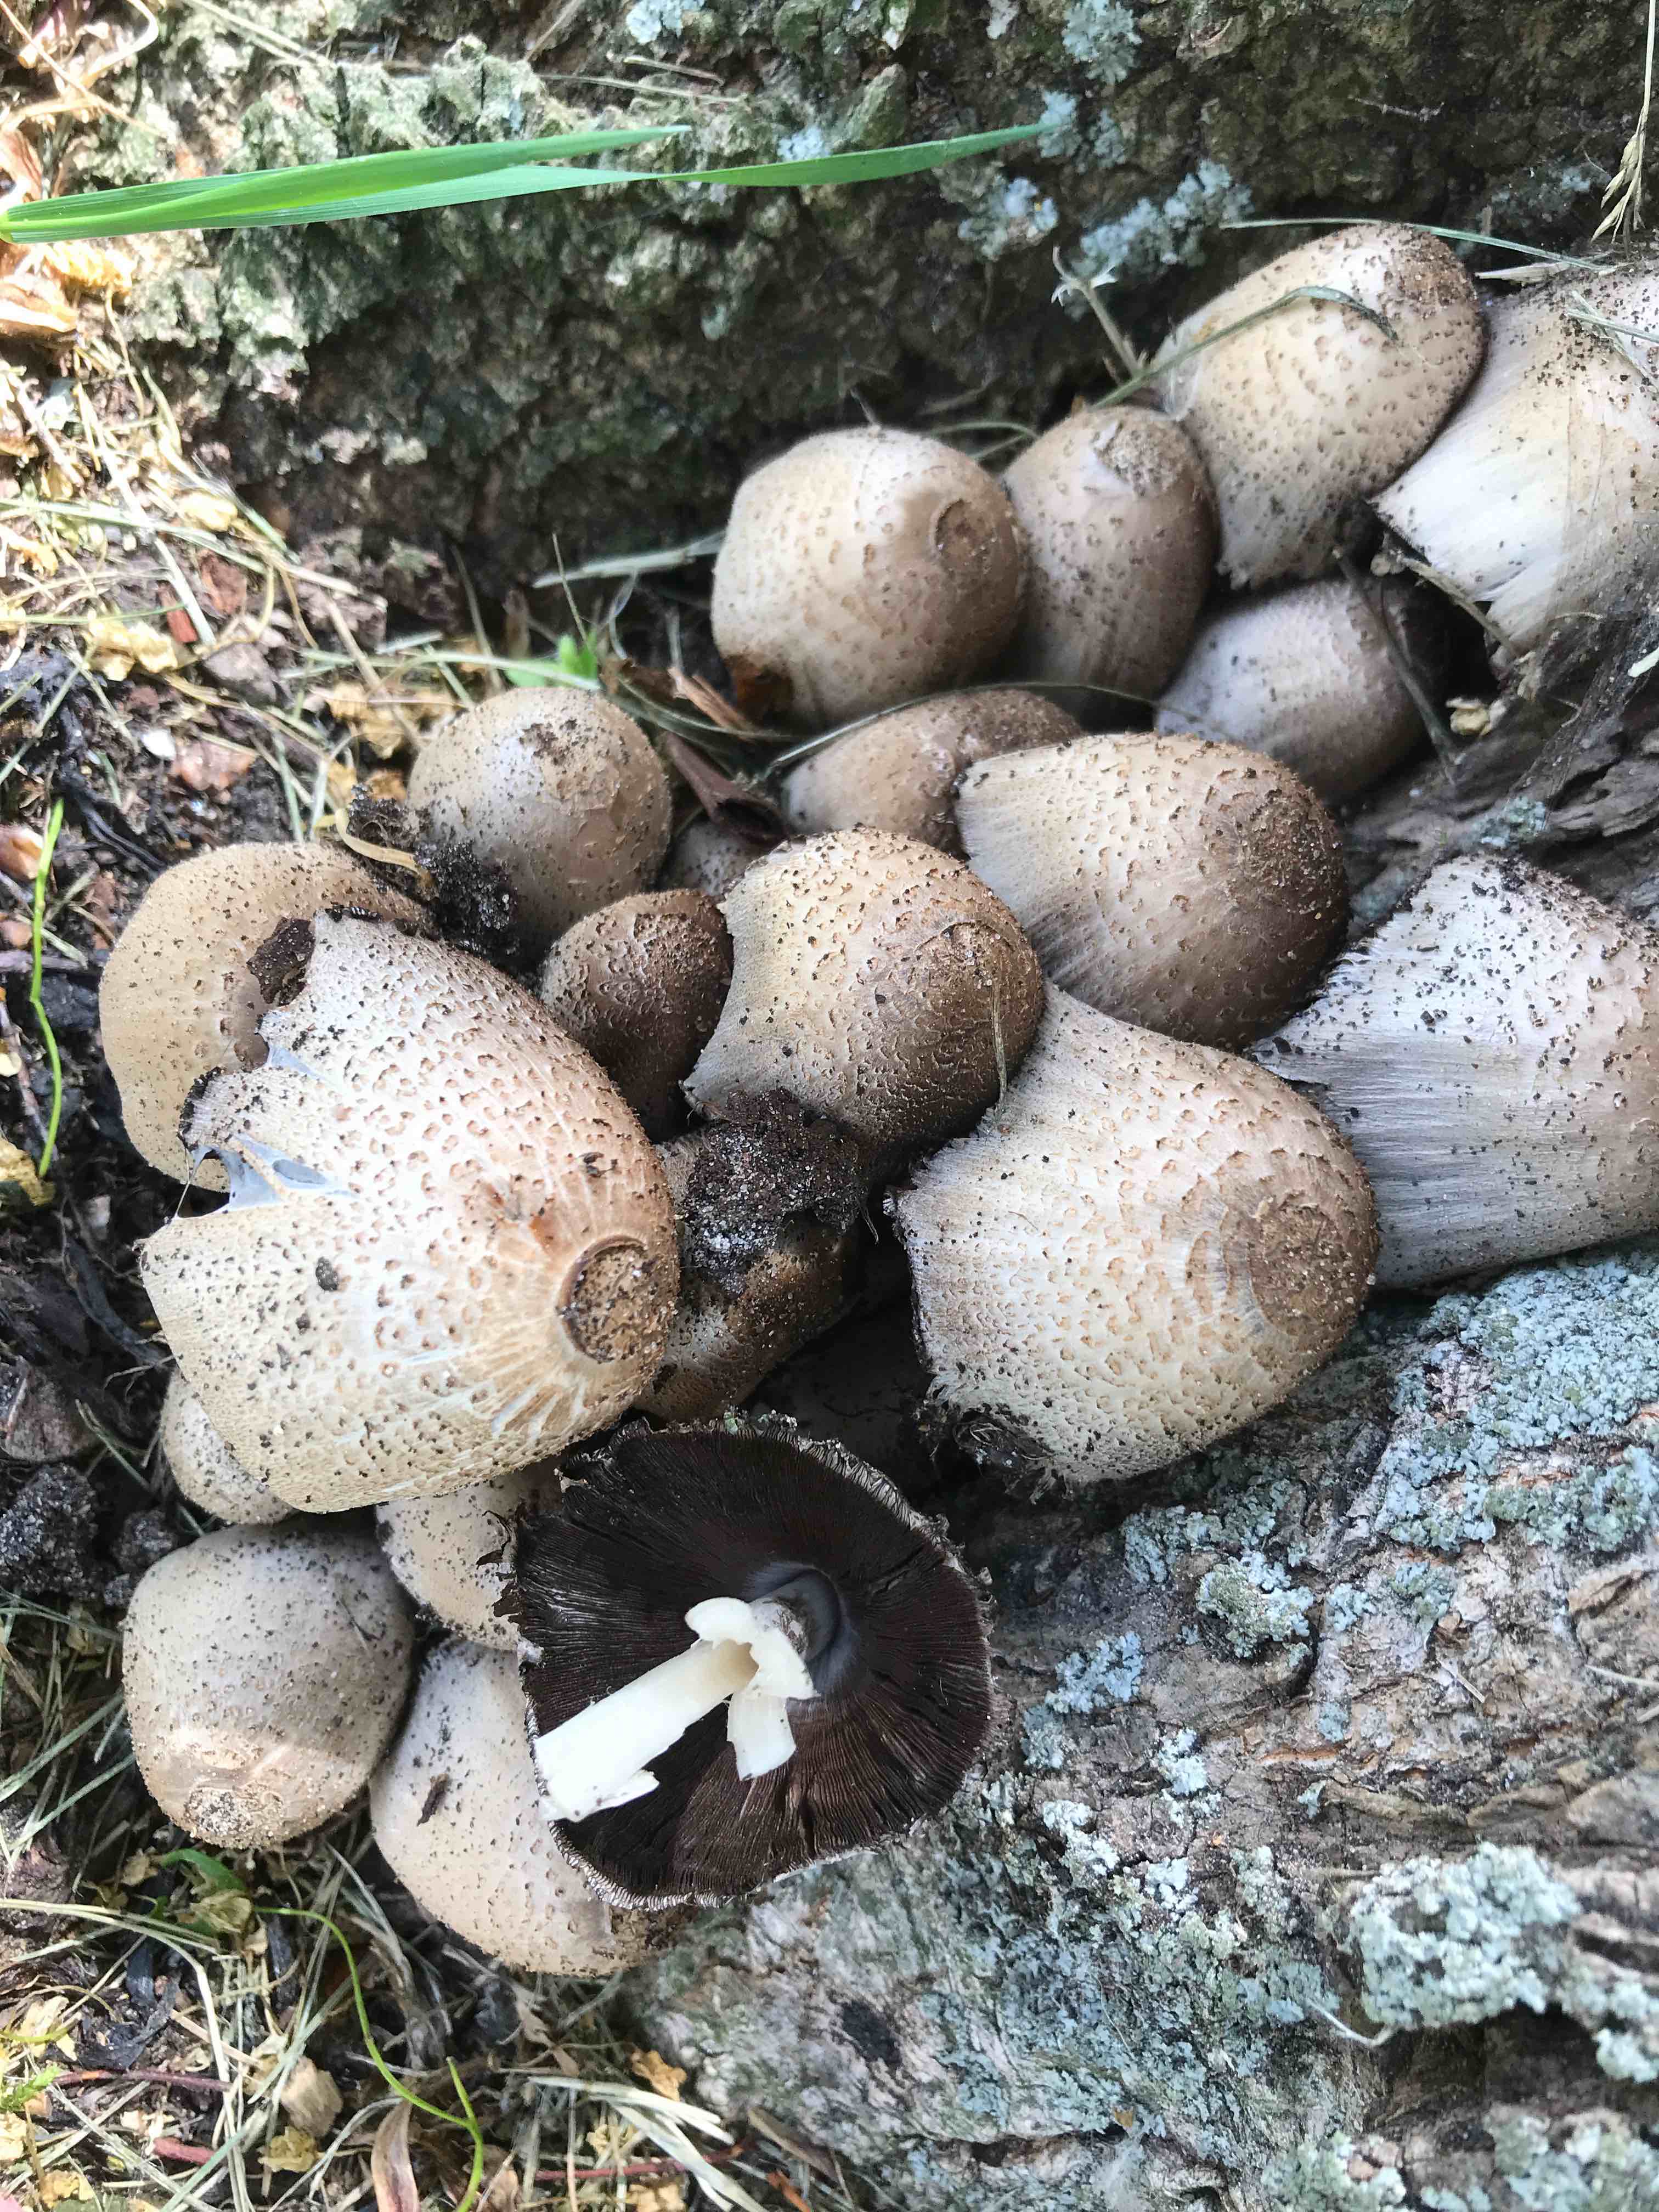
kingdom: Fungi
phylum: Basidiomycota
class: Agaricomycetes
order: Agaricales
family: Psathyrellaceae
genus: Coprinopsis
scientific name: Coprinopsis romagnesiana
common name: brunskællet blækhat
